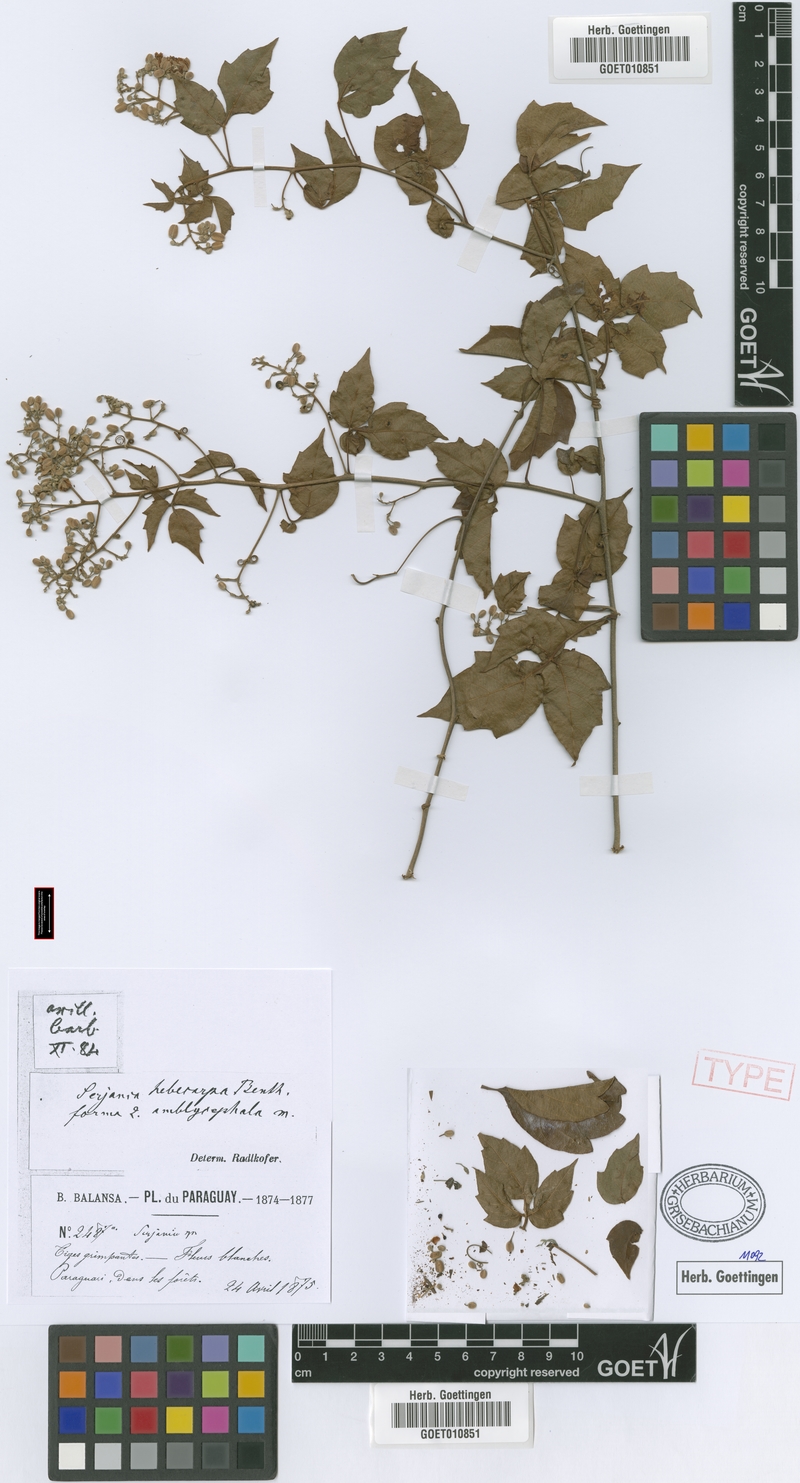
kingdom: Plantae
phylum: Tracheophyta
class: Magnoliopsida
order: Sapindales
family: Sapindaceae
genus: Serjania
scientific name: Serjania hebecarpa
